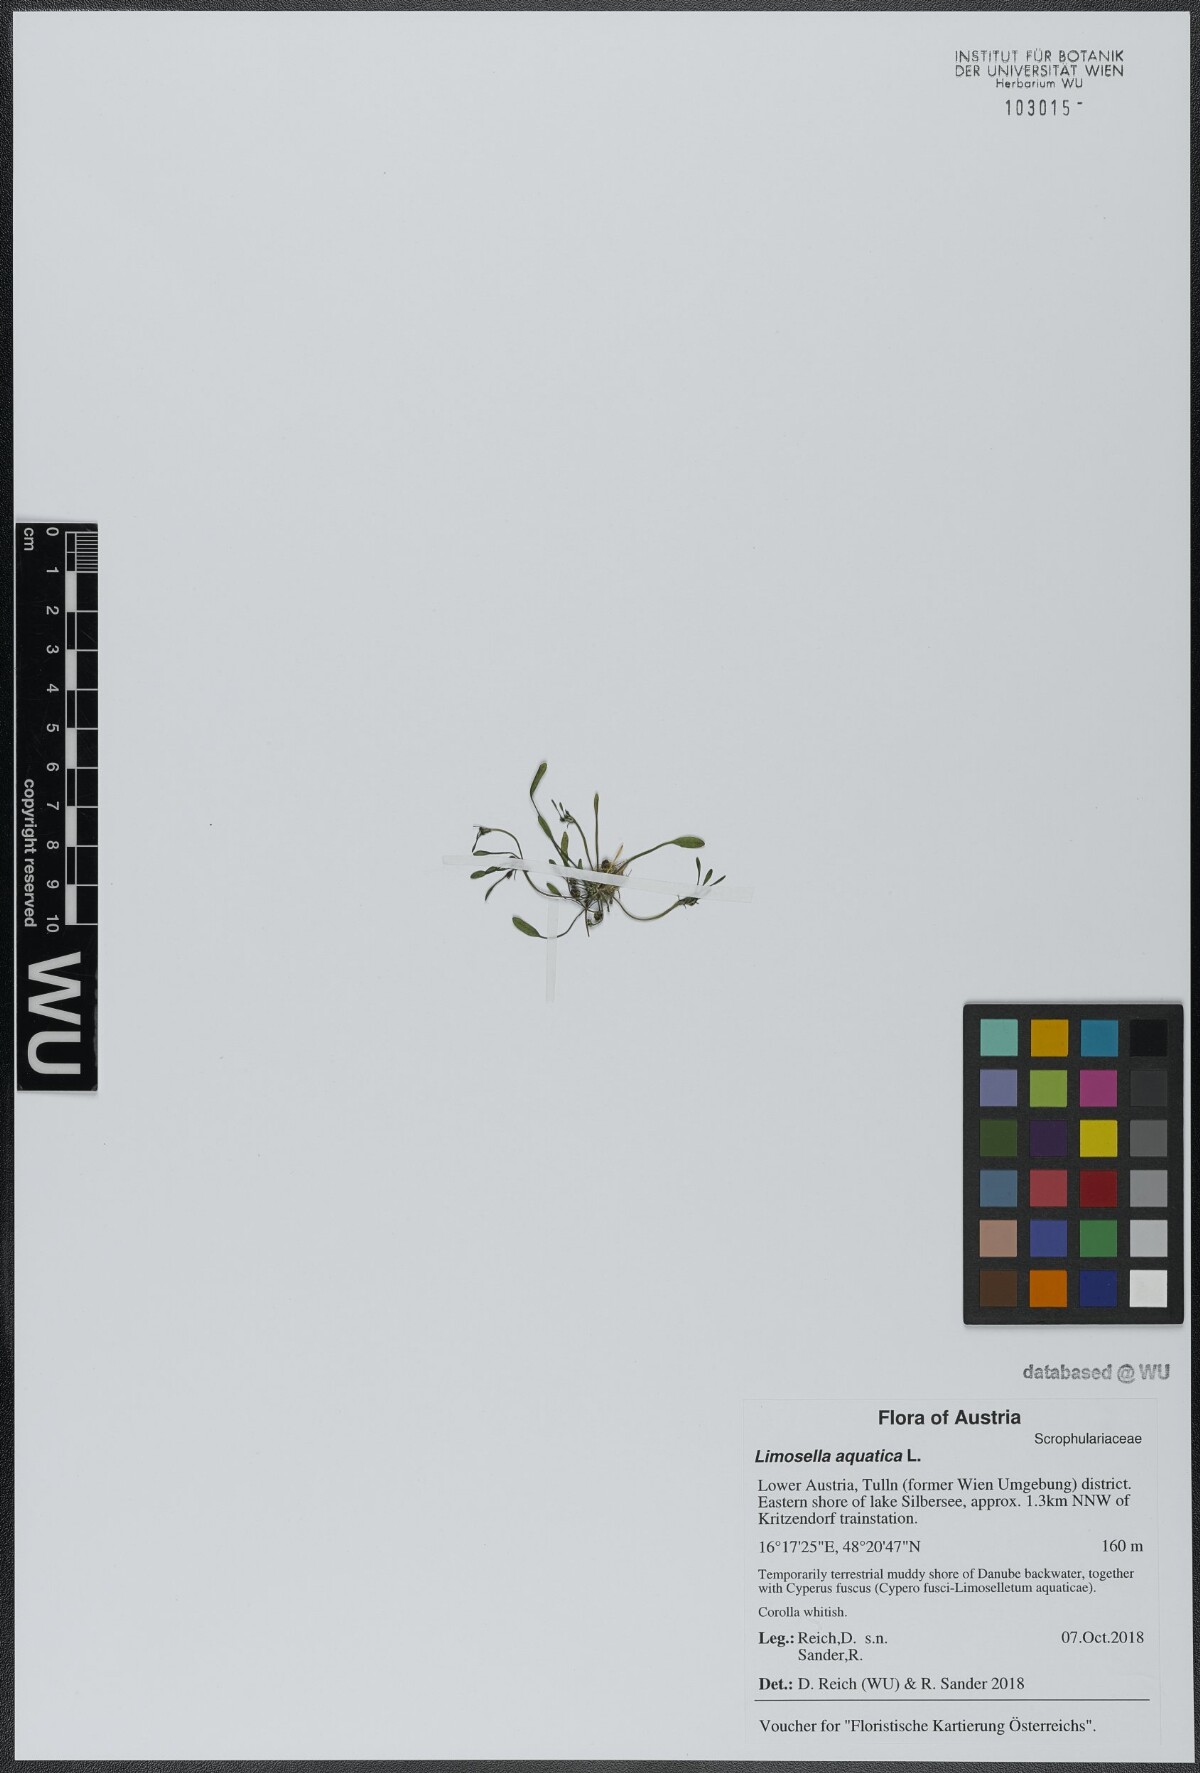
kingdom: Plantae
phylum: Tracheophyta
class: Magnoliopsida
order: Lamiales
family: Scrophulariaceae
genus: Limosella
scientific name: Limosella aquatica
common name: Mudwort
